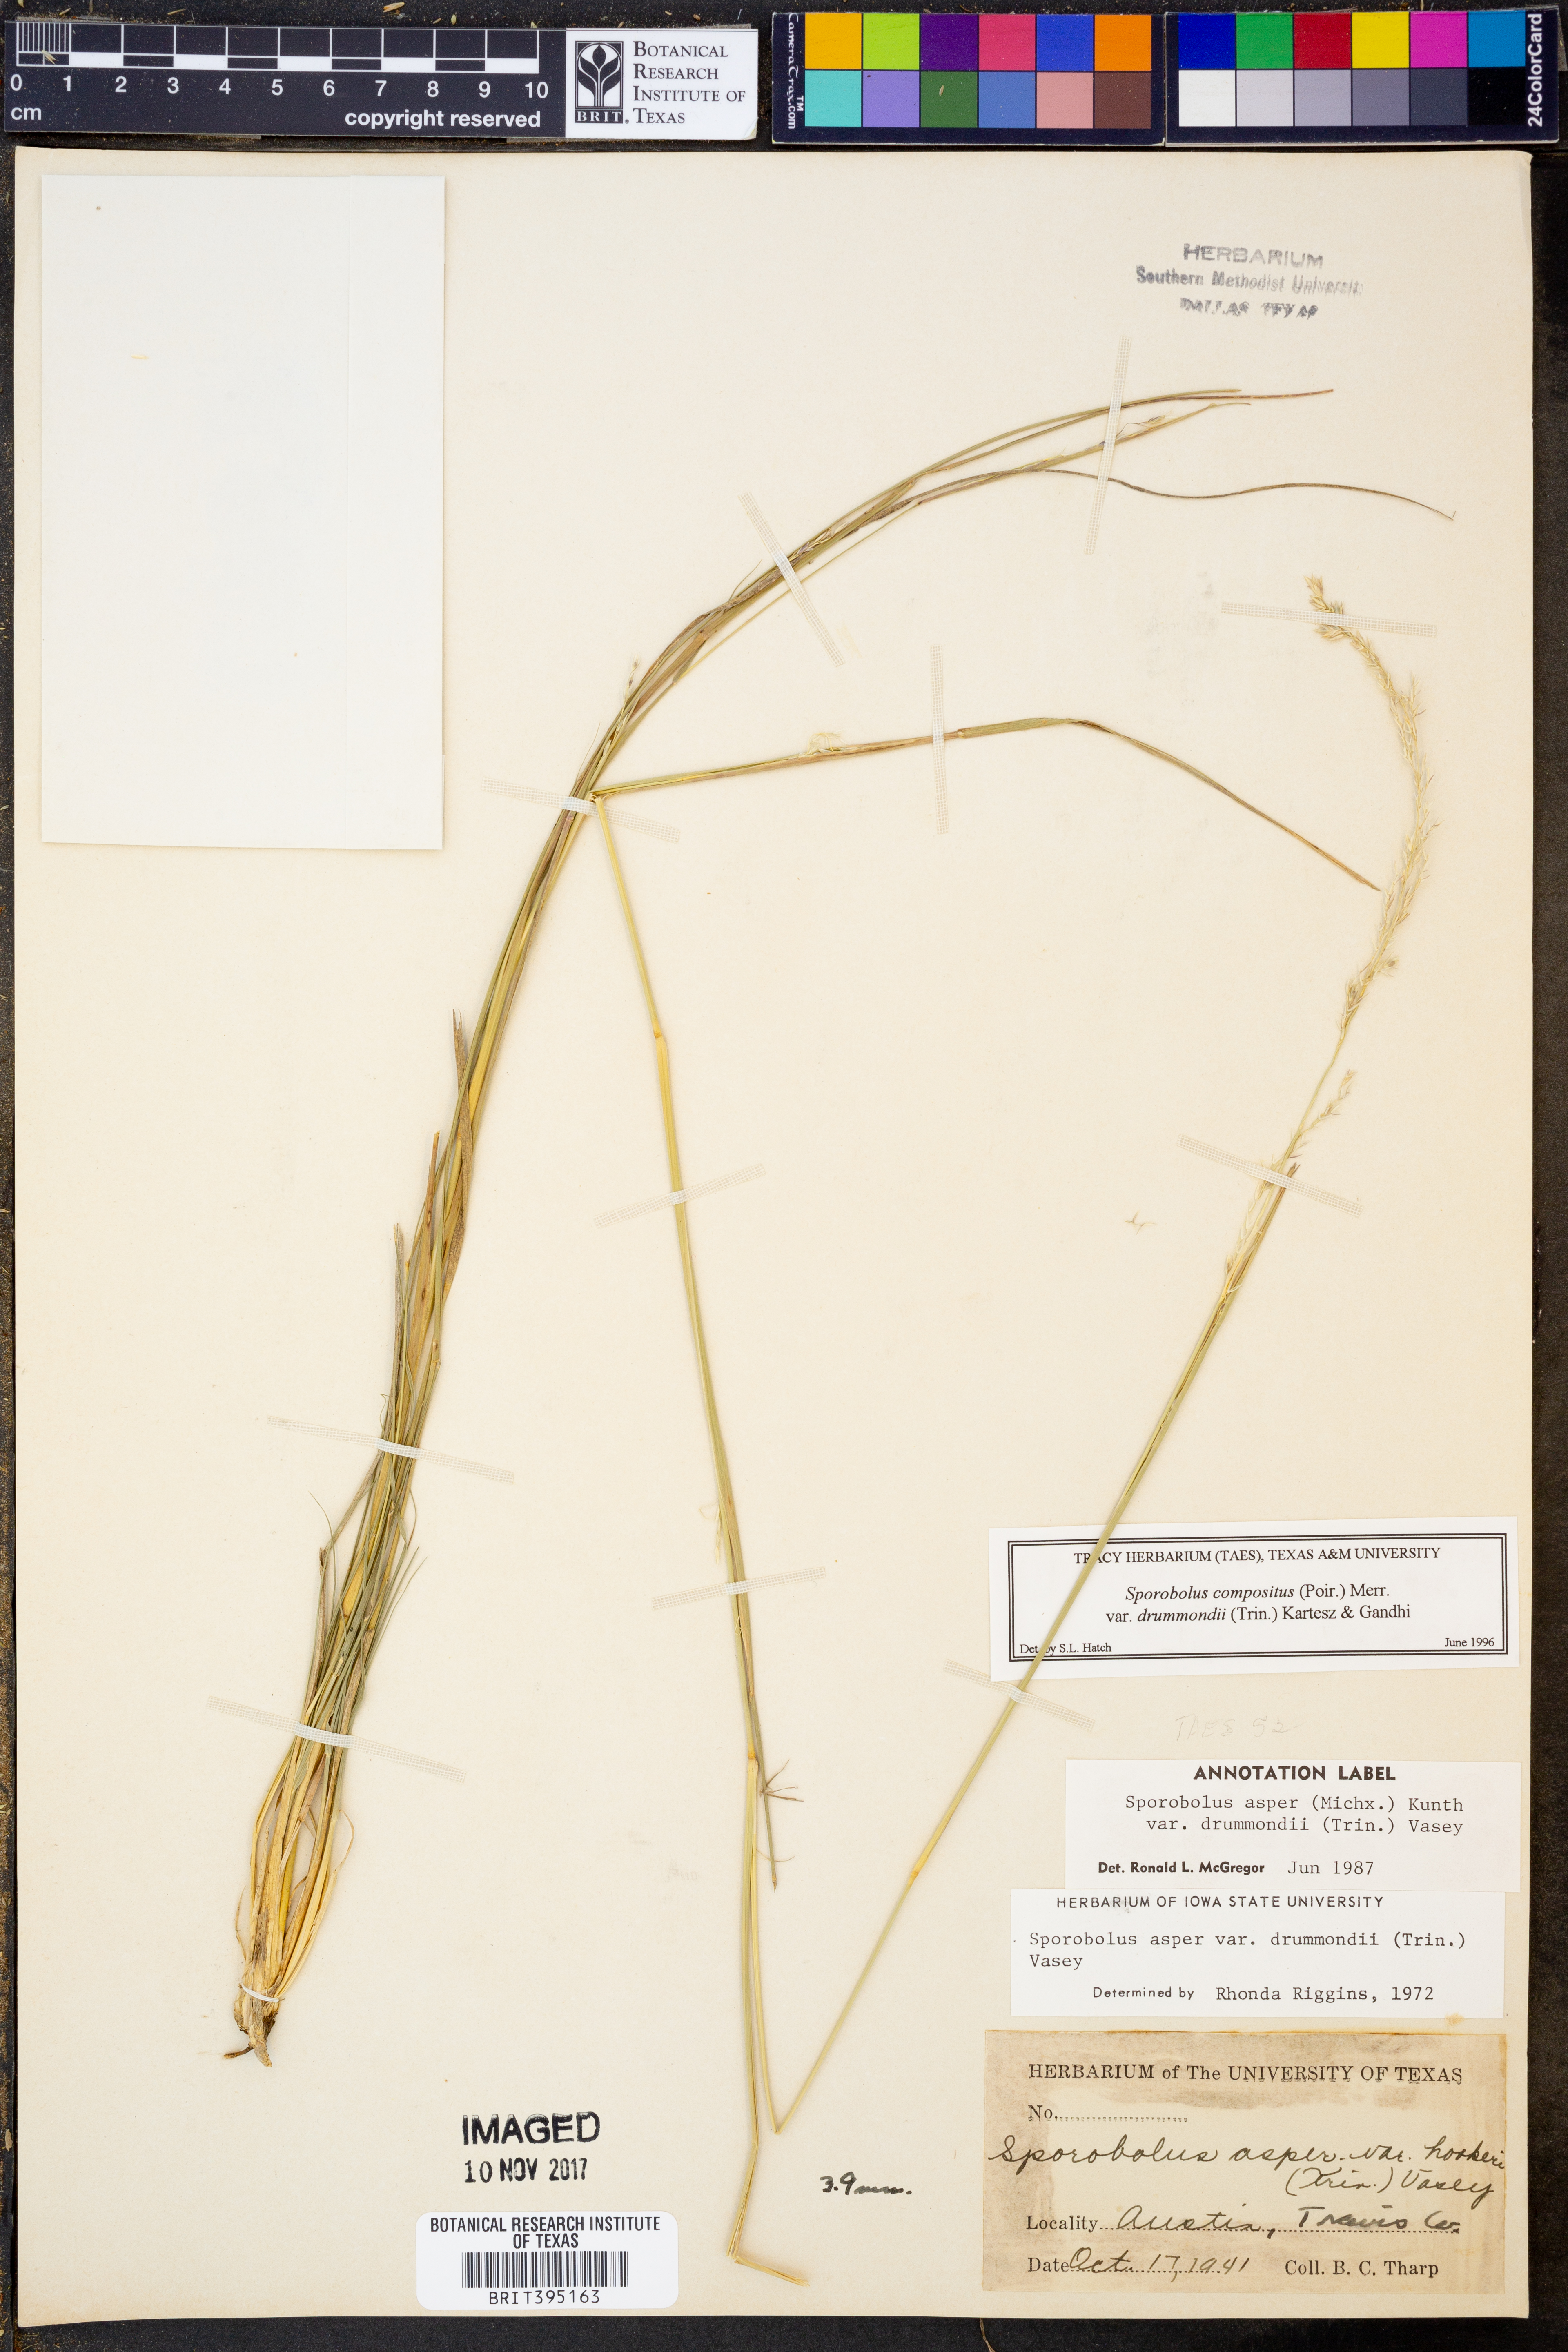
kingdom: Plantae
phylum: Tracheophyta
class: Liliopsida
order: Poales
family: Poaceae
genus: Sporobolus
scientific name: Sporobolus compositus
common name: Rough dropseed
